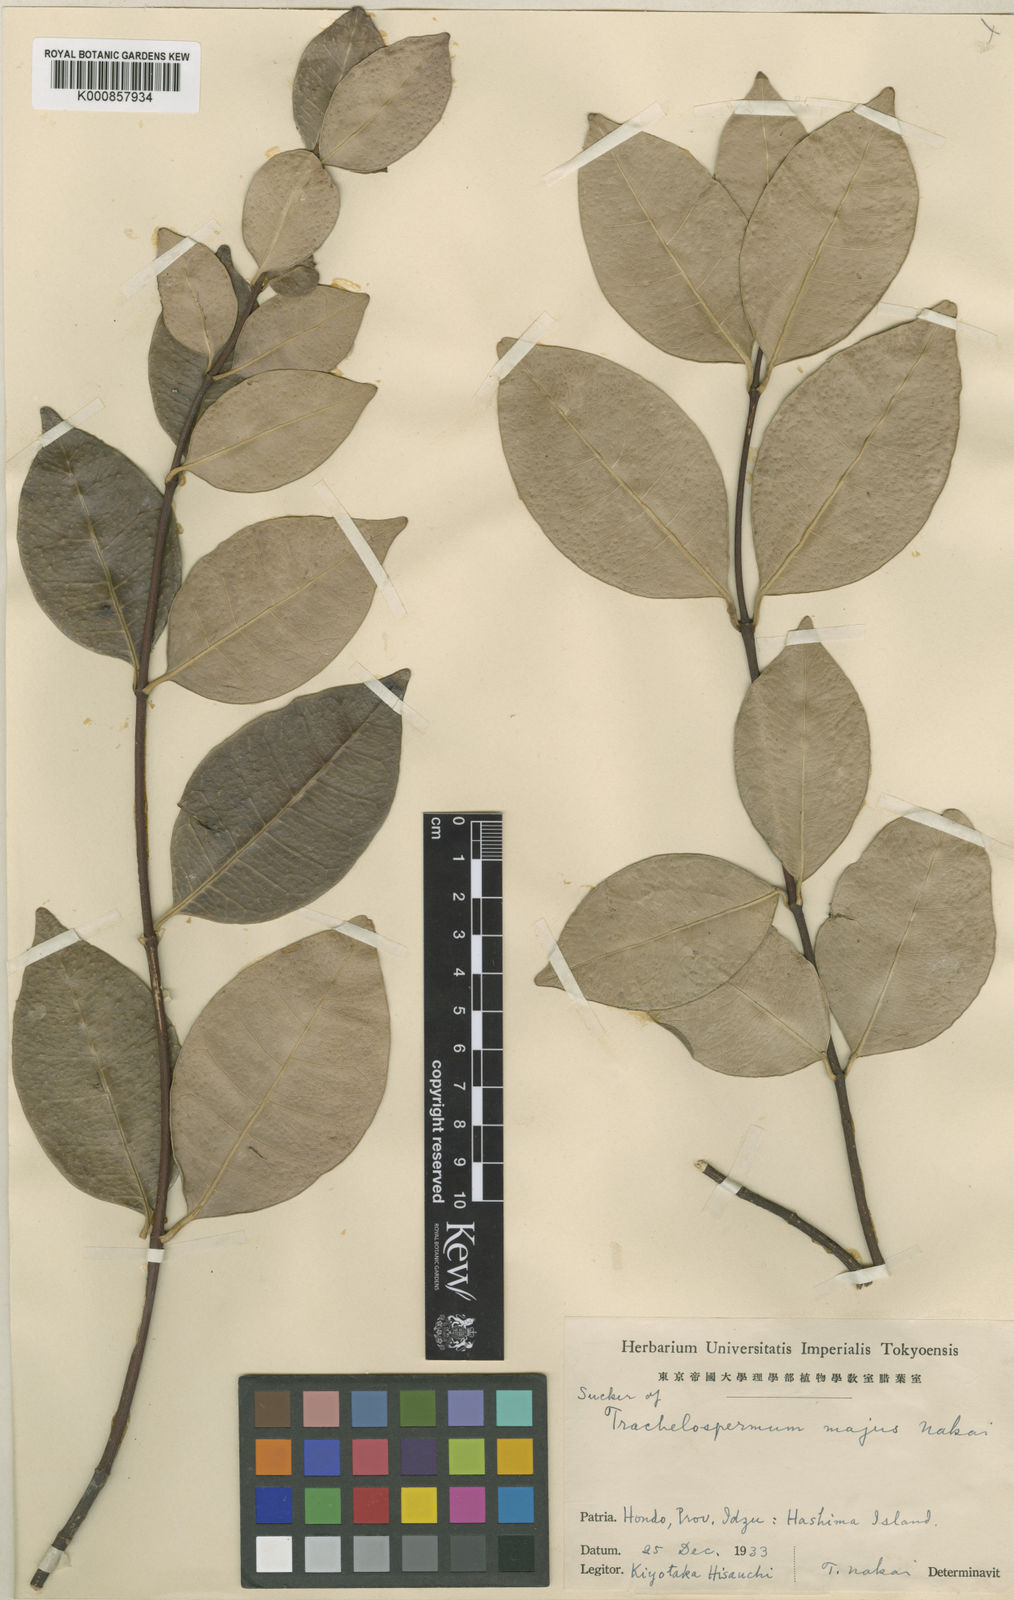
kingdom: Plantae
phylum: Tracheophyta
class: Magnoliopsida
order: Gentianales
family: Apocynaceae
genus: Trachelospermum
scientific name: Trachelospermum jasminoides
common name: Confederate jasmine
